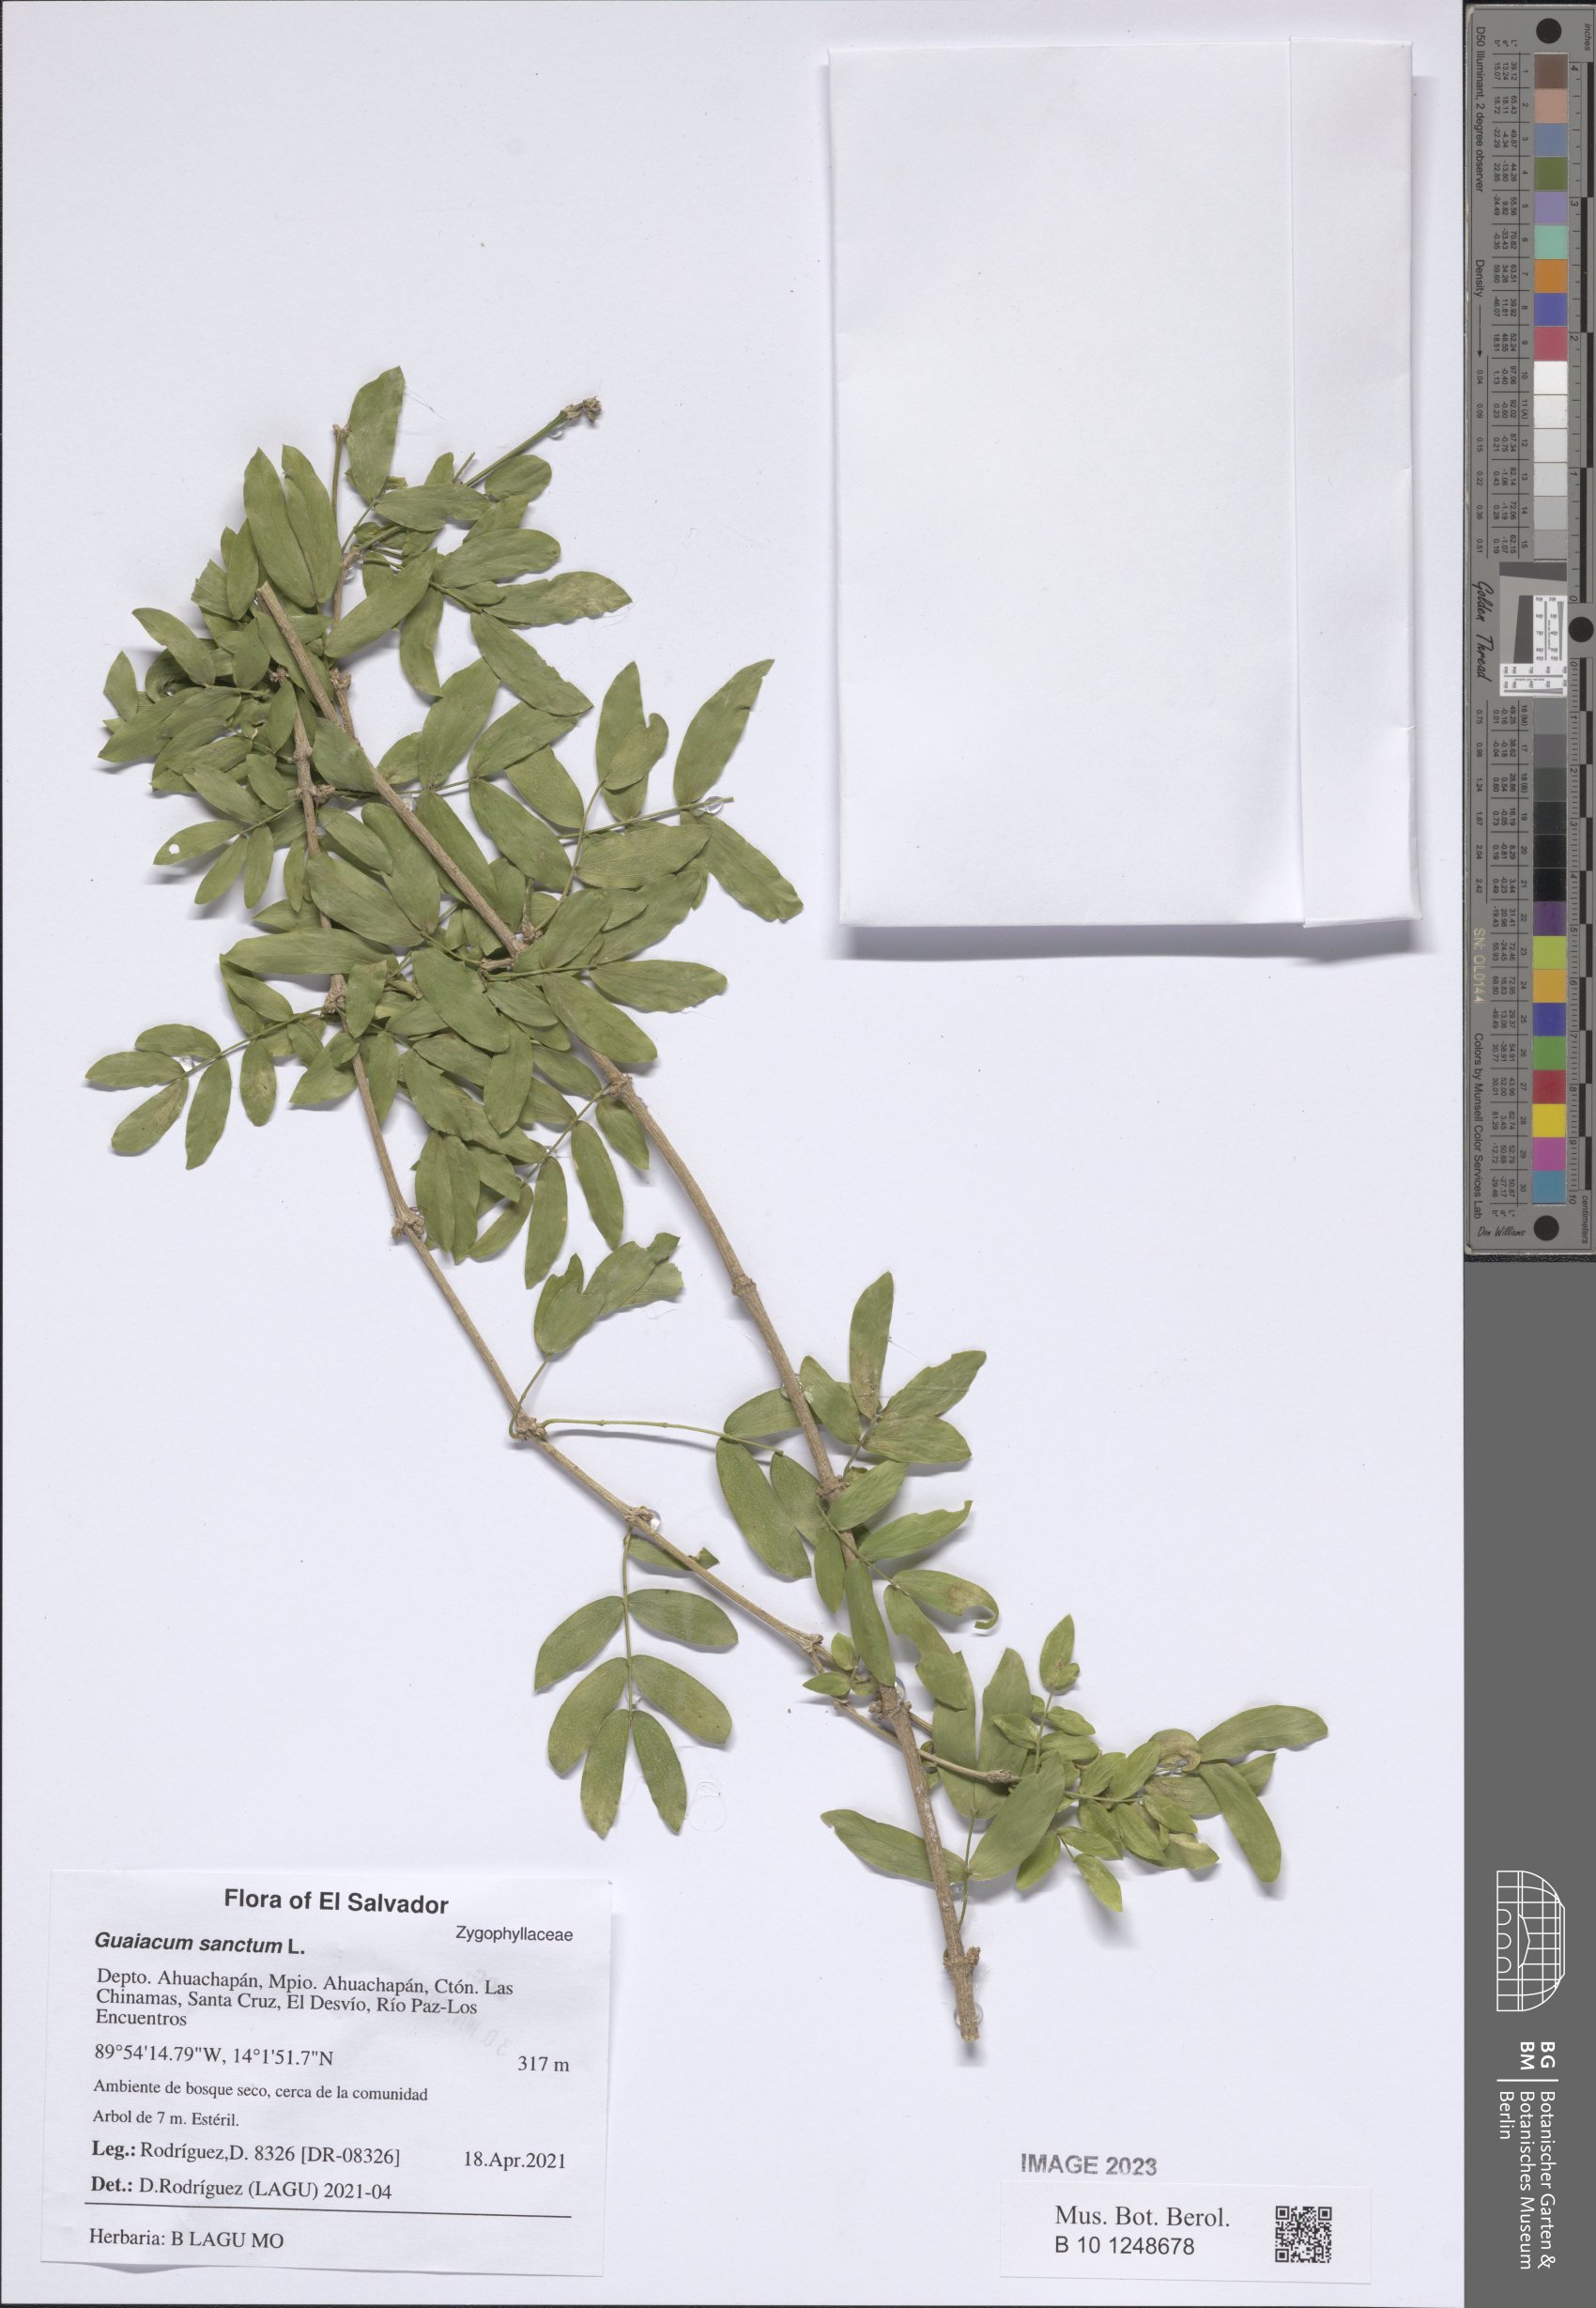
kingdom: Plantae
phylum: Tracheophyta
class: Magnoliopsida
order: Zygophyllales
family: Zygophyllaceae
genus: Guaiacum
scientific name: Guaiacum sanctum
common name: Holywood
